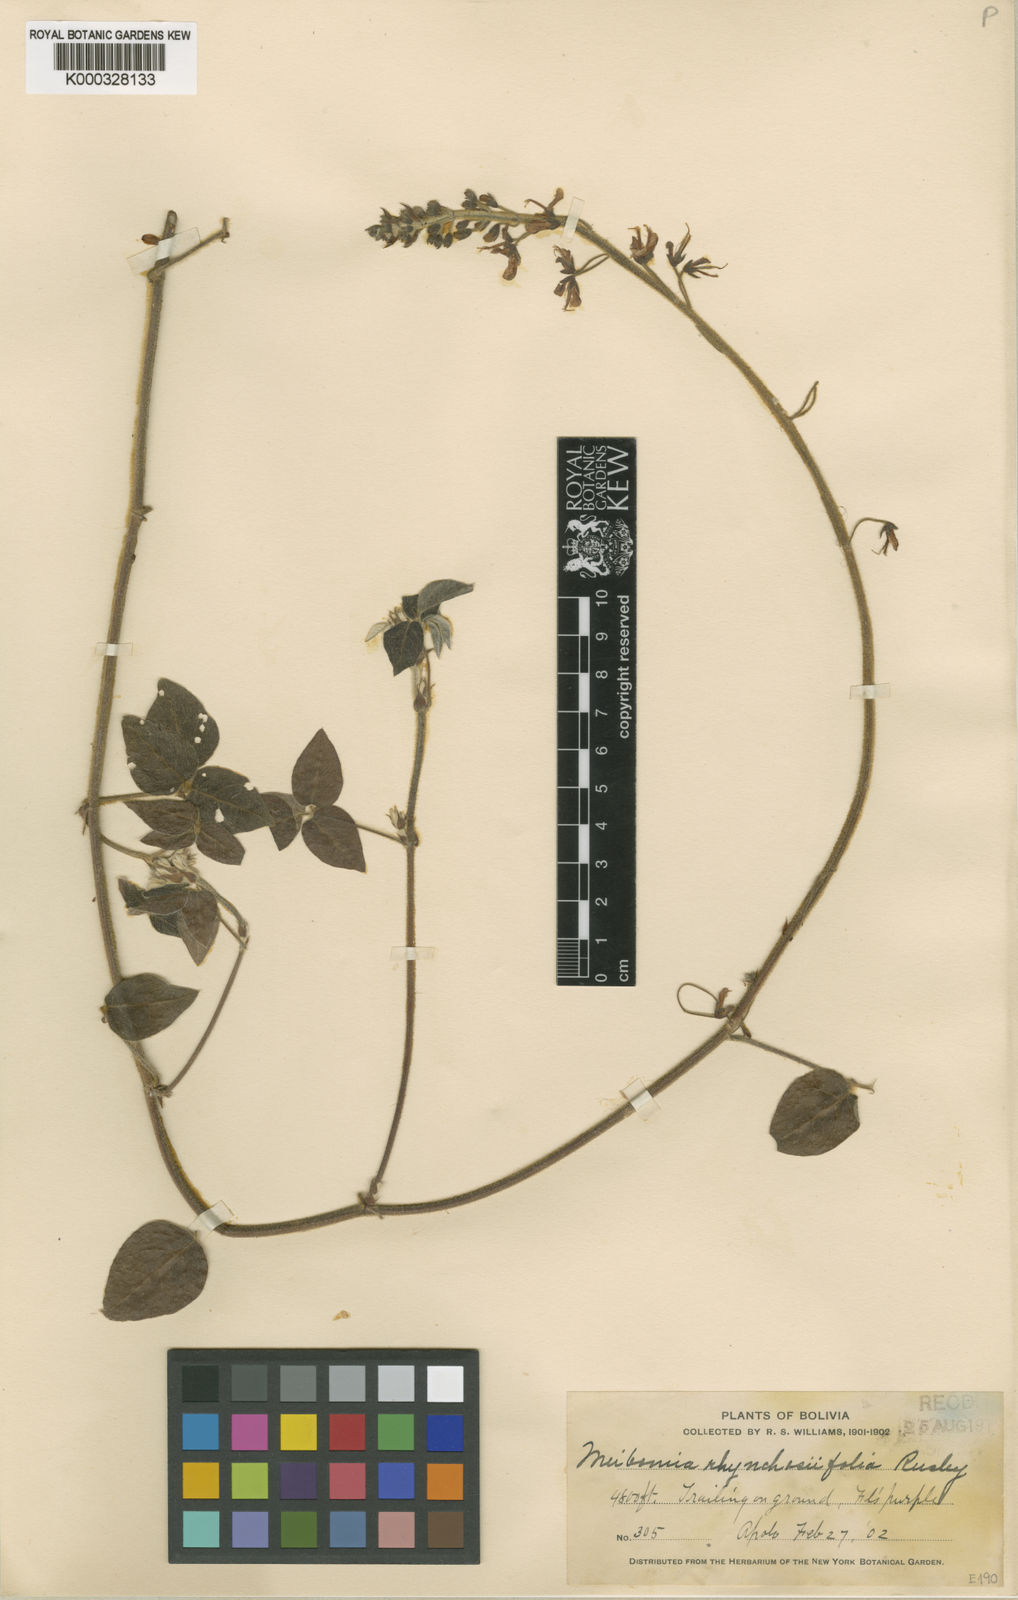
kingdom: Plantae
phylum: Tracheophyta
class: Magnoliopsida
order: Fabales
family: Fabaceae
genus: Desmodium
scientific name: Desmodium
